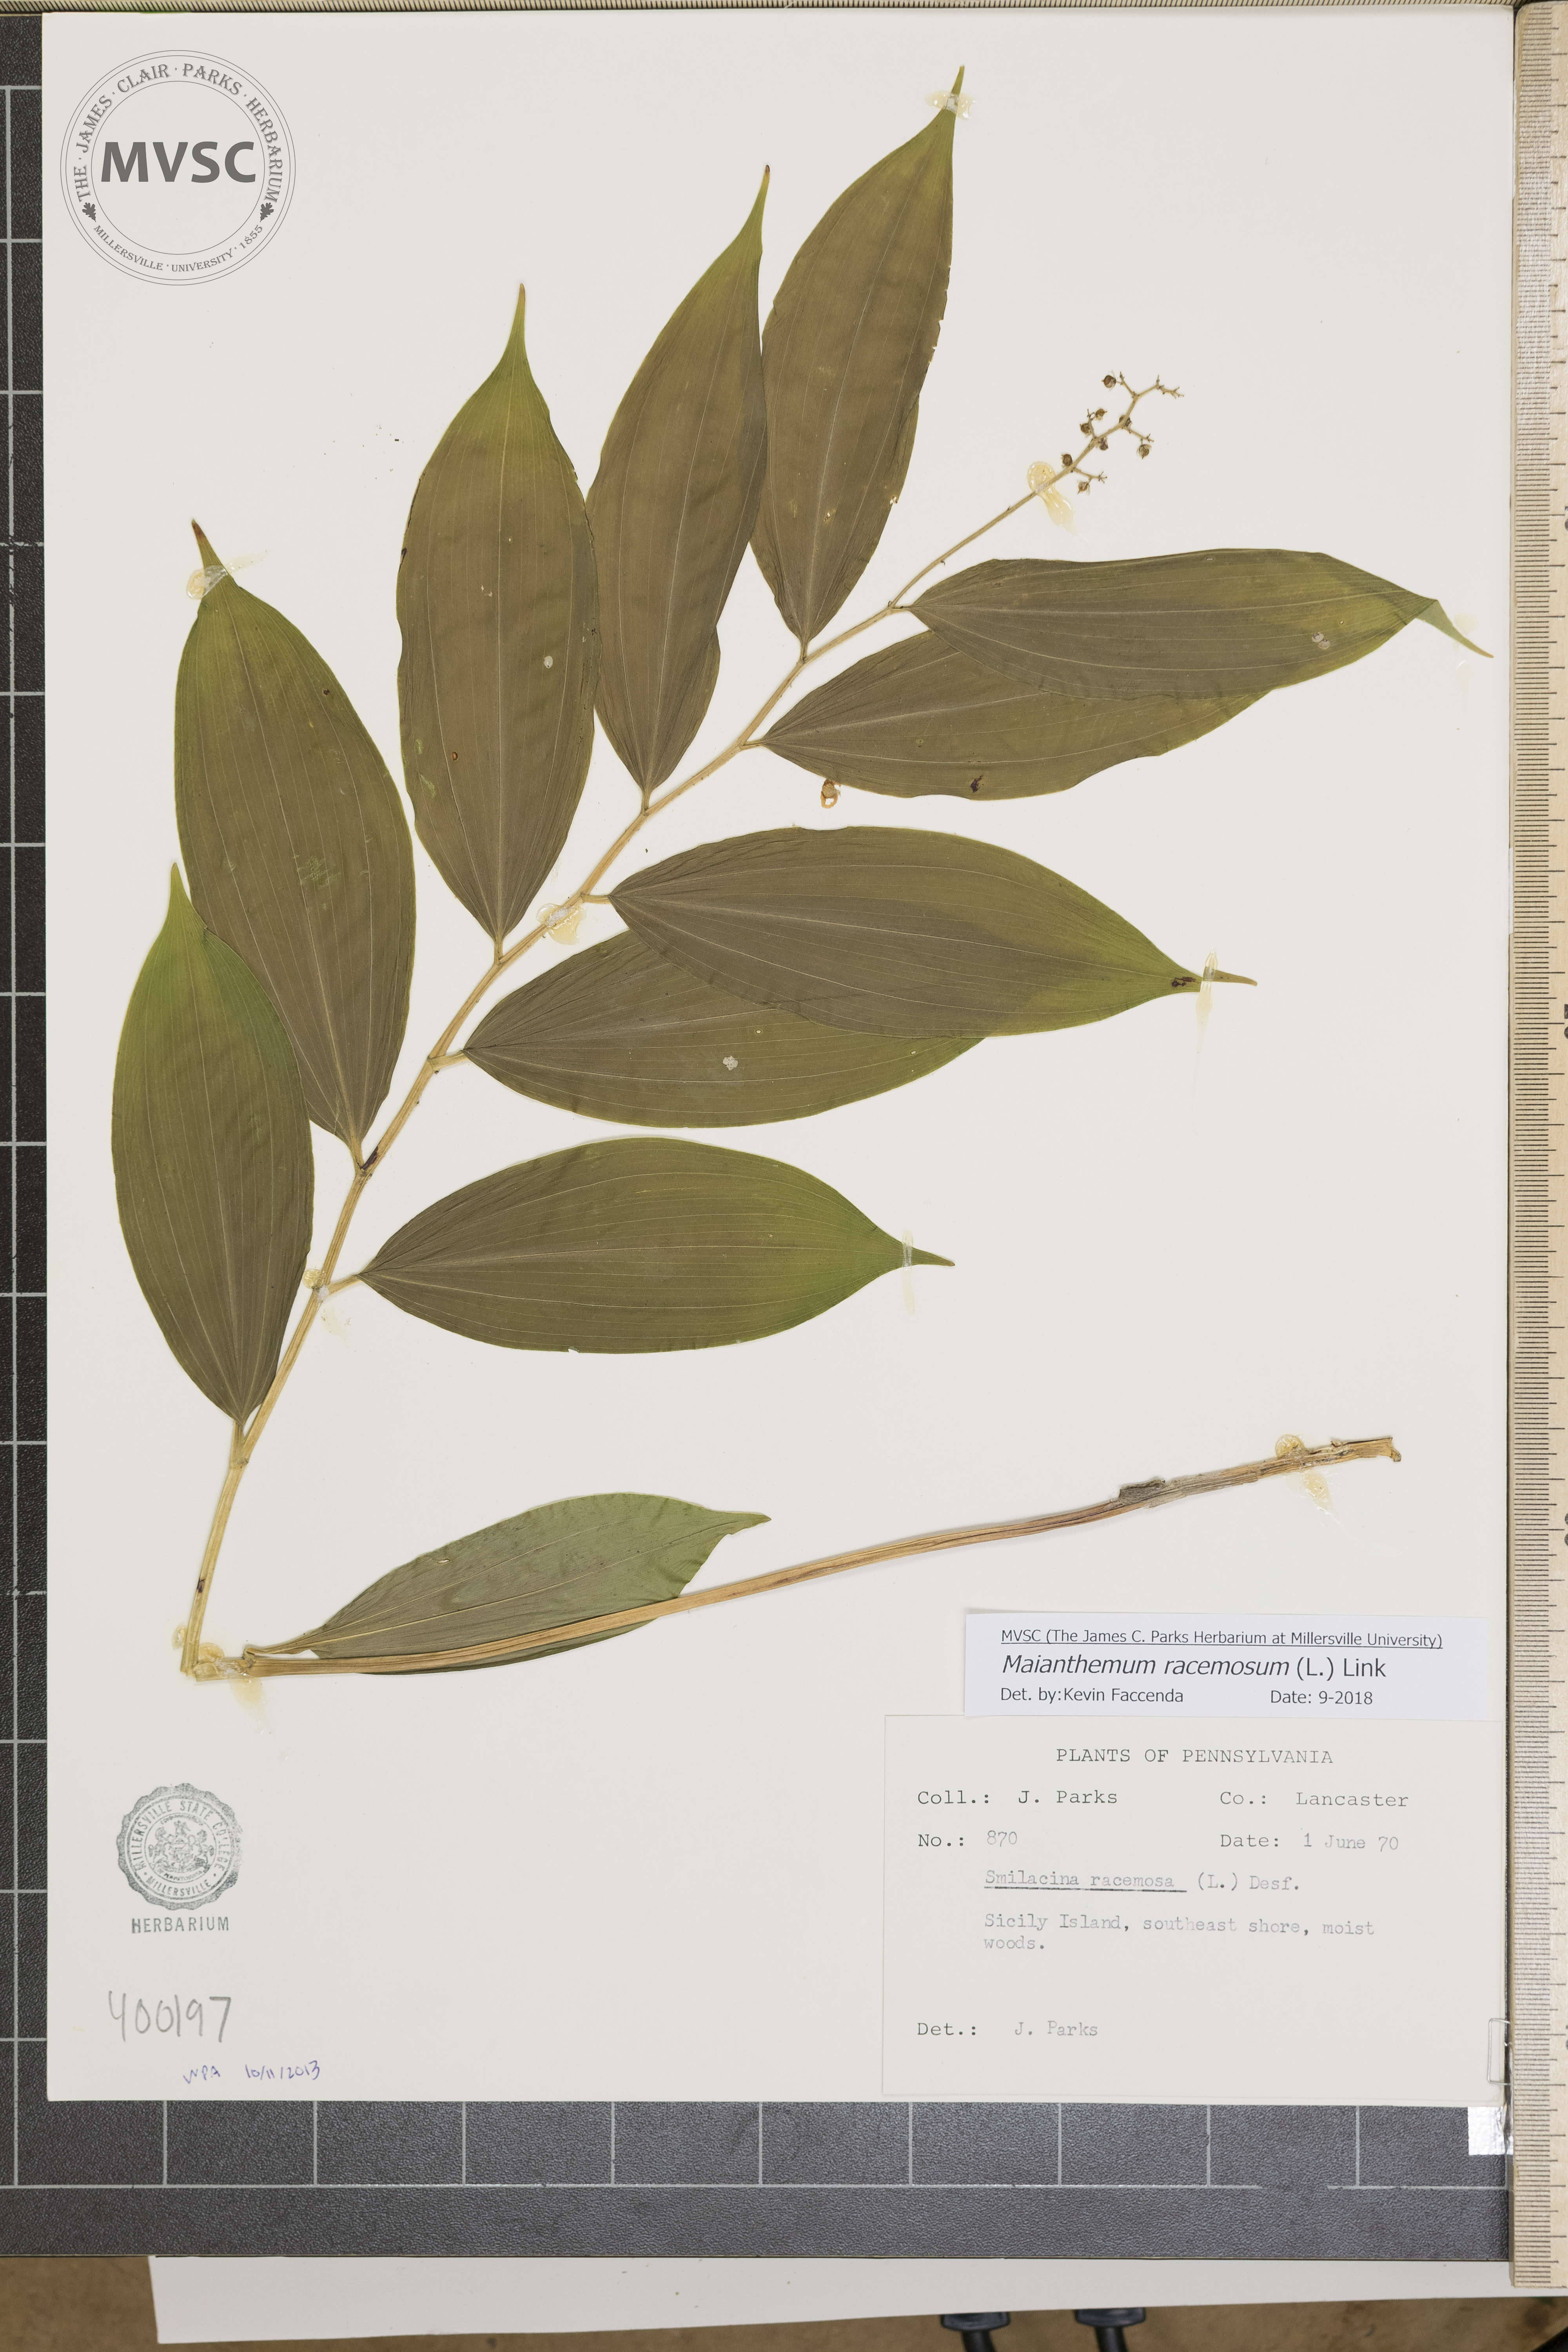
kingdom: Plantae
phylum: Tracheophyta
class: Liliopsida
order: Asparagales
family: Asparagaceae
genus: Maianthemum
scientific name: Maianthemum racemosum
